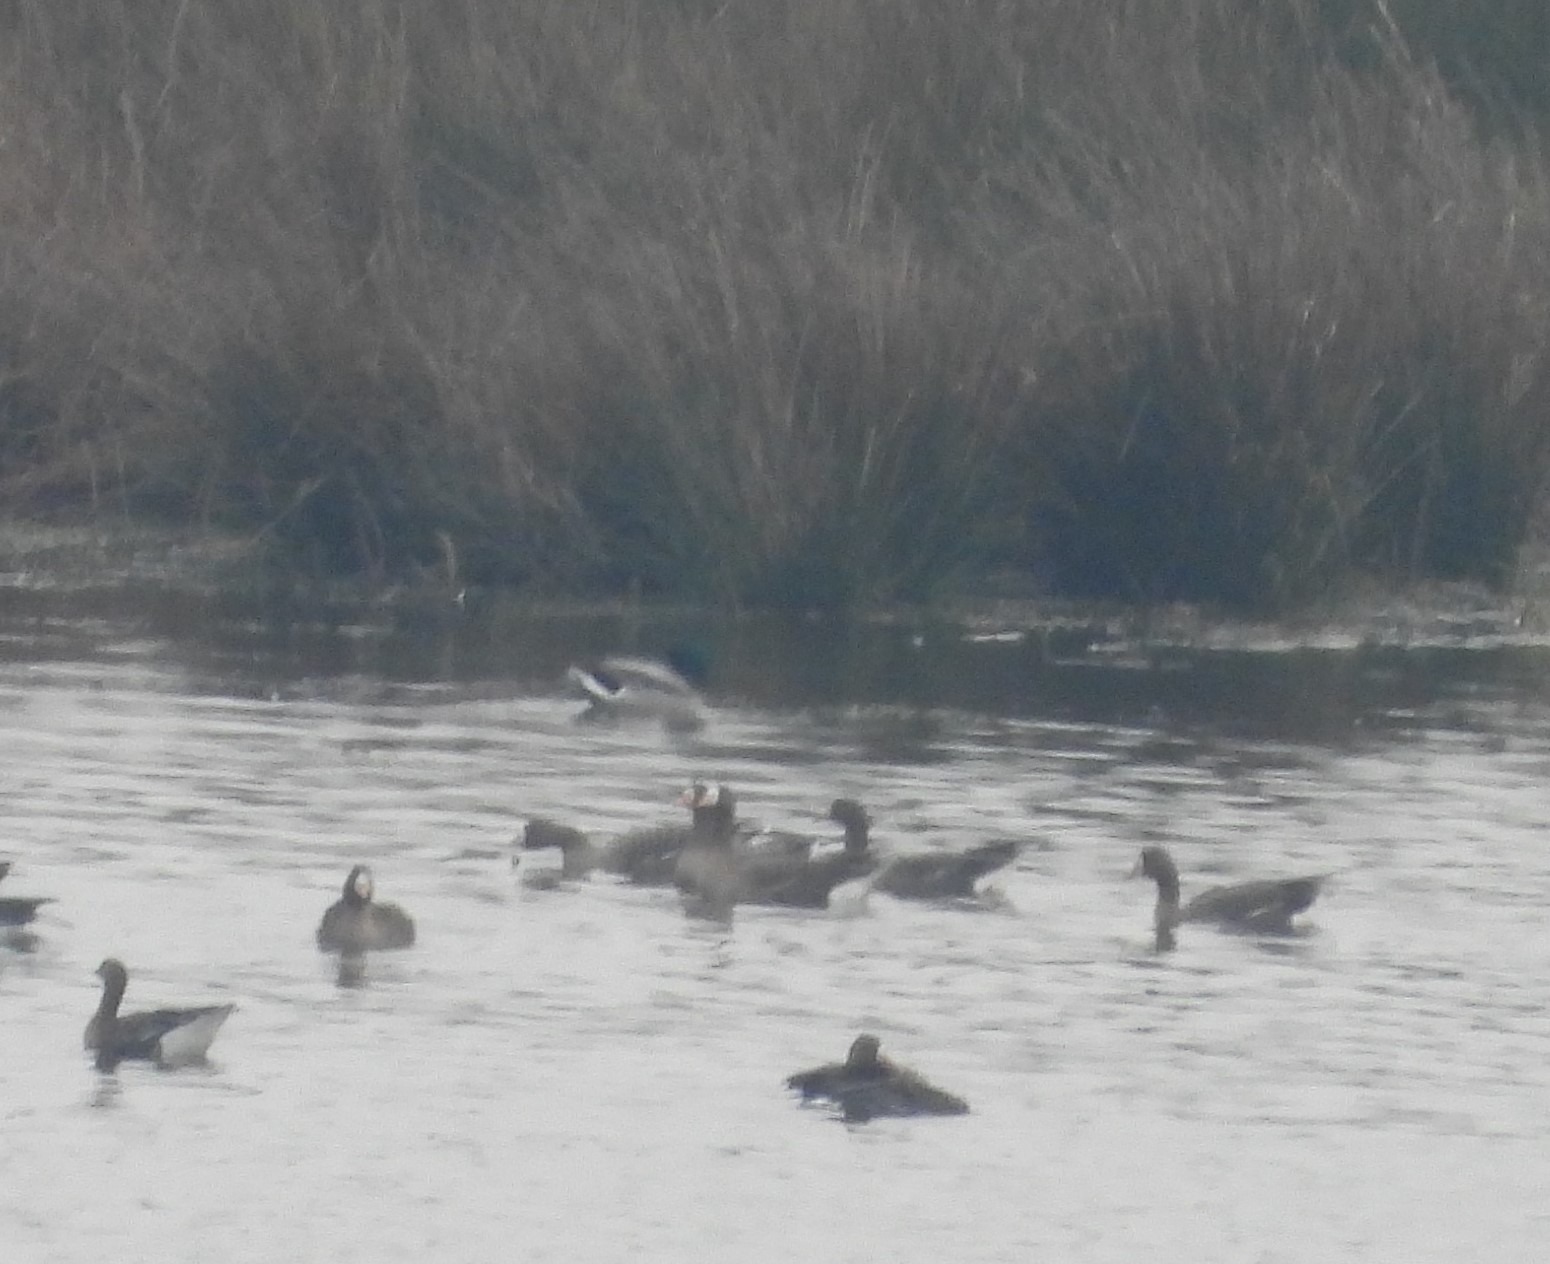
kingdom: Animalia
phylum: Chordata
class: Aves
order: Anseriformes
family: Anatidae
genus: Anas
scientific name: Anas platyrhynchos
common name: Gråand
